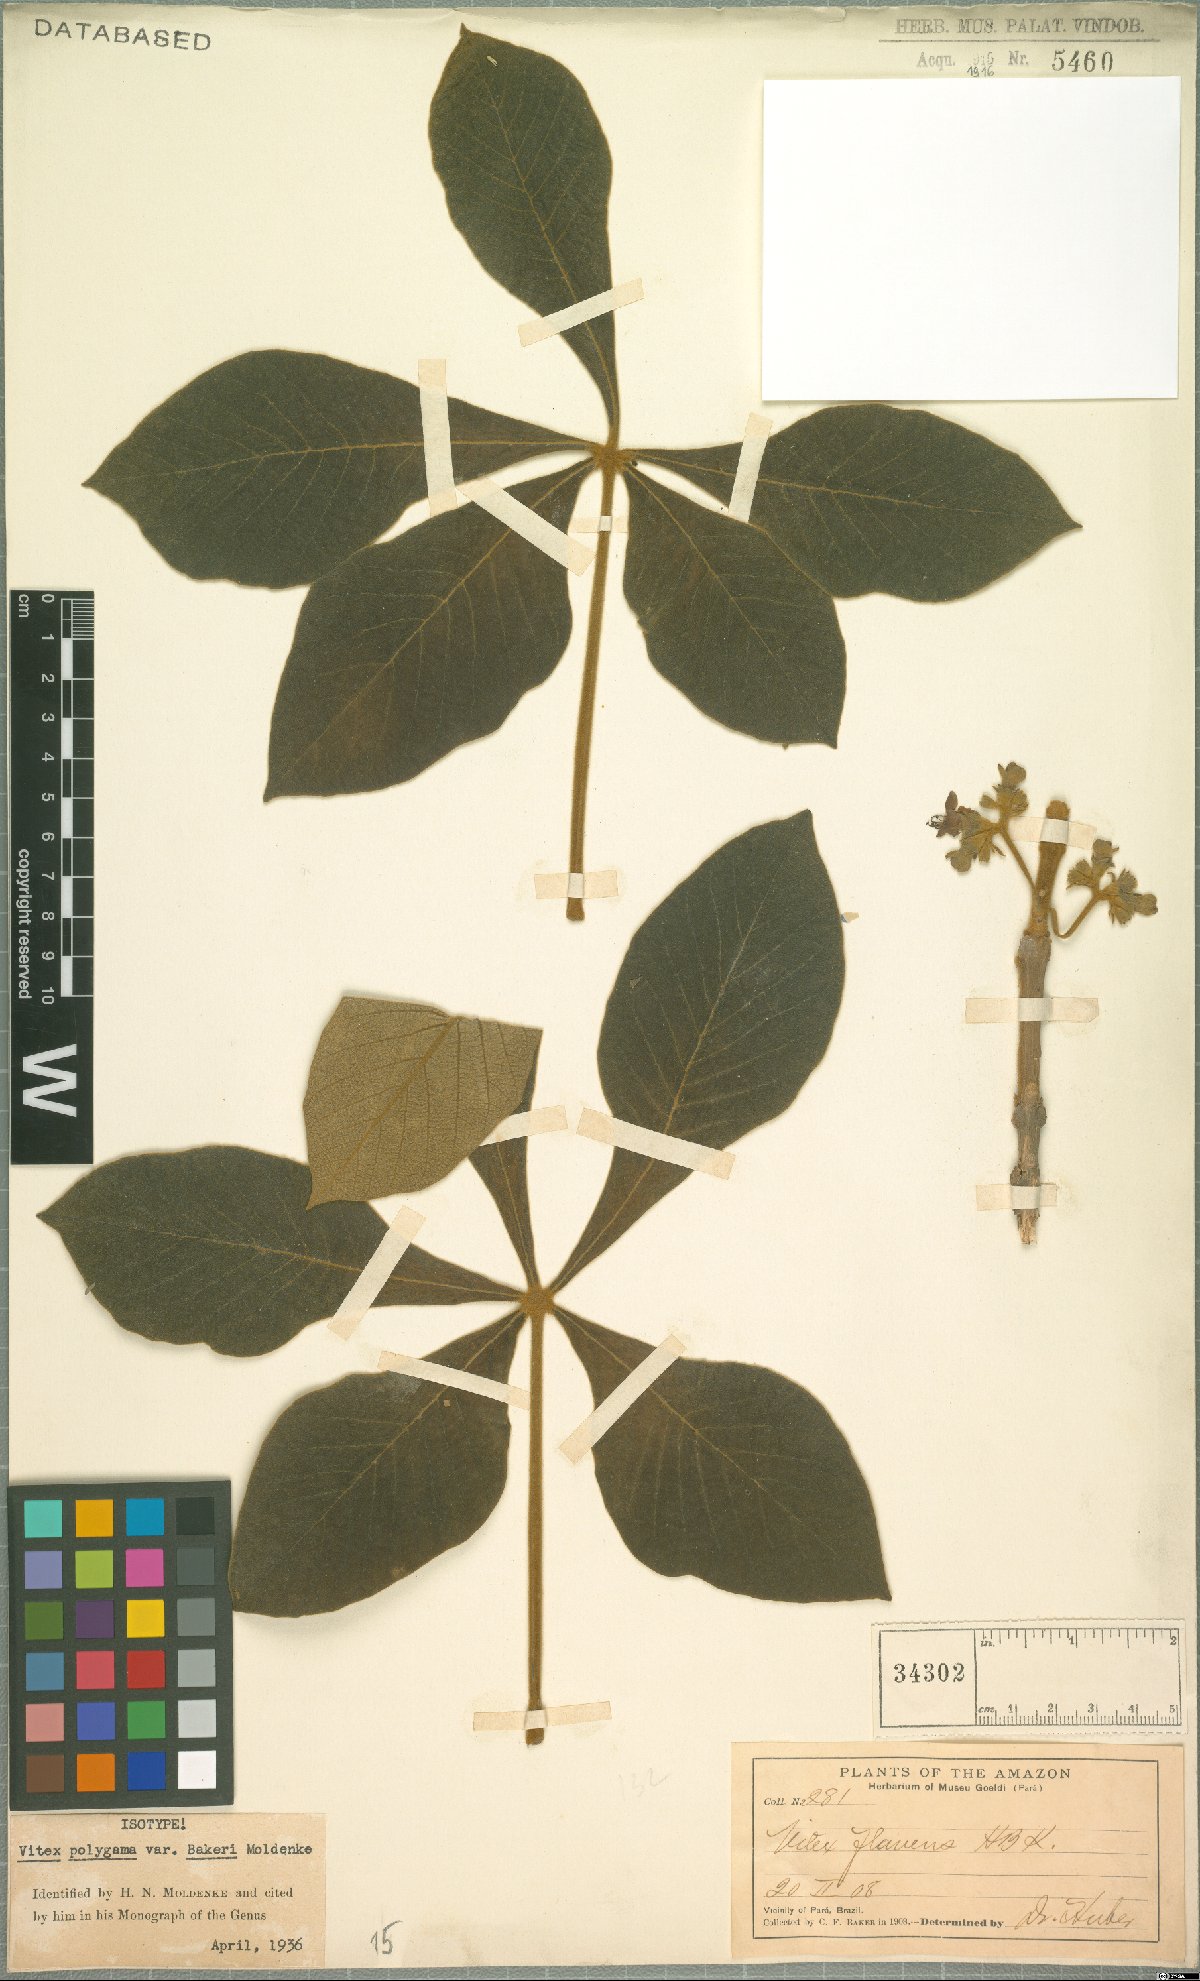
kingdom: Plantae
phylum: Tracheophyta
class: Magnoliopsida
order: Lamiales
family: Lamiaceae
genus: Vitex
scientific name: Vitex panshiniana
